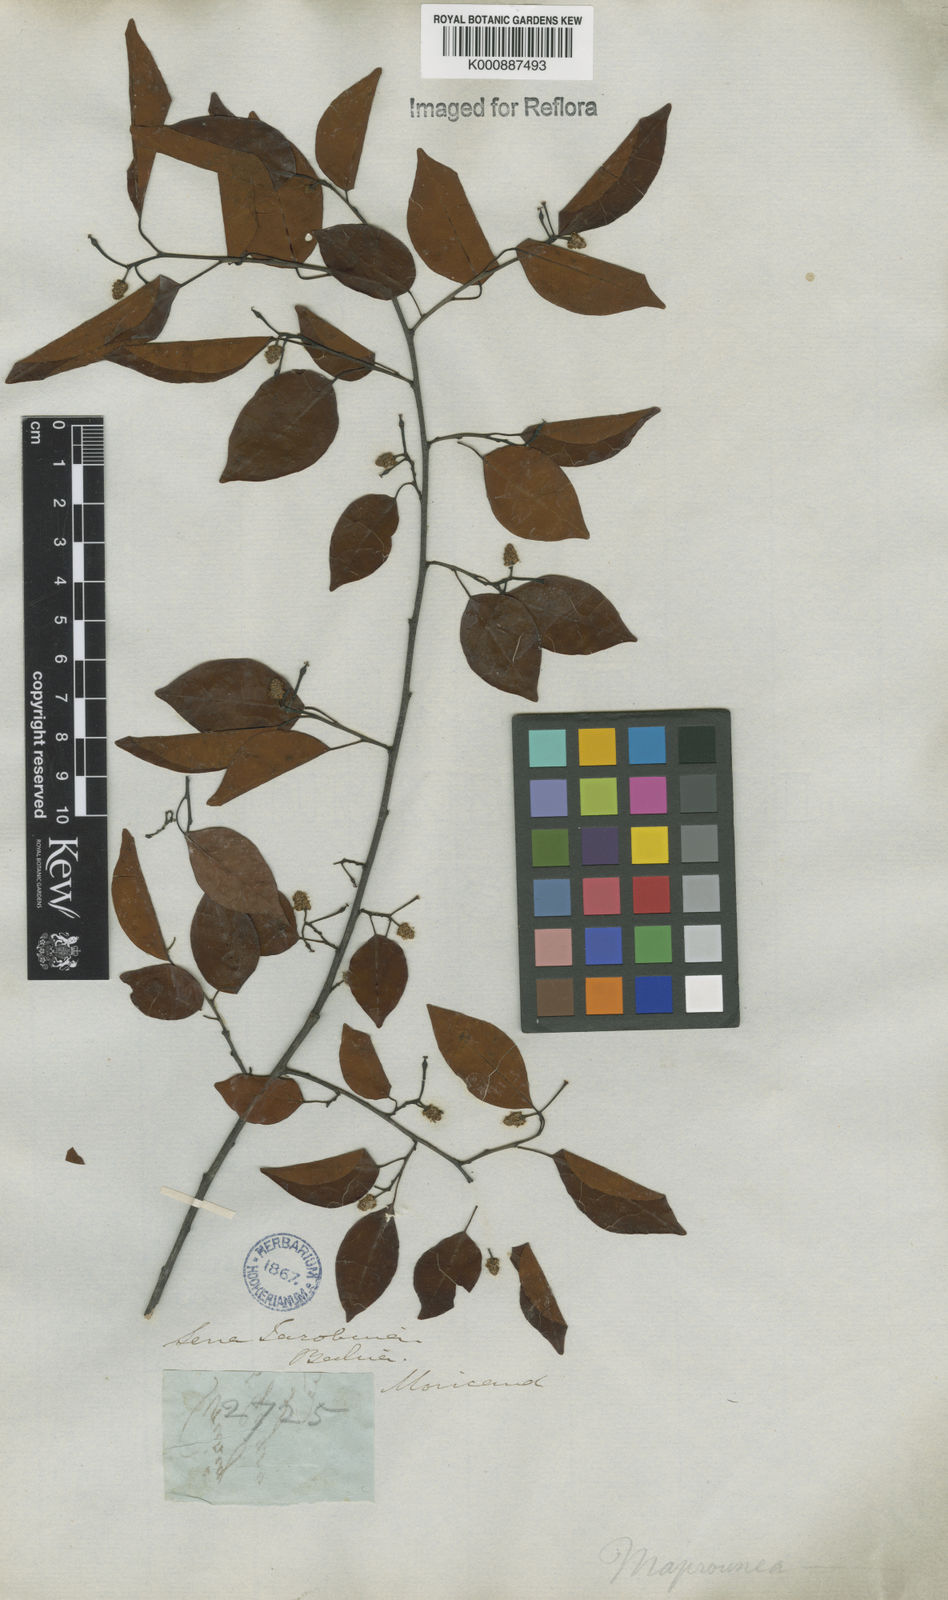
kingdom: Plantae
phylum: Tracheophyta
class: Magnoliopsida
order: Malpighiales
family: Euphorbiaceae
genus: Maprounea
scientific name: Maprounea guianensis
